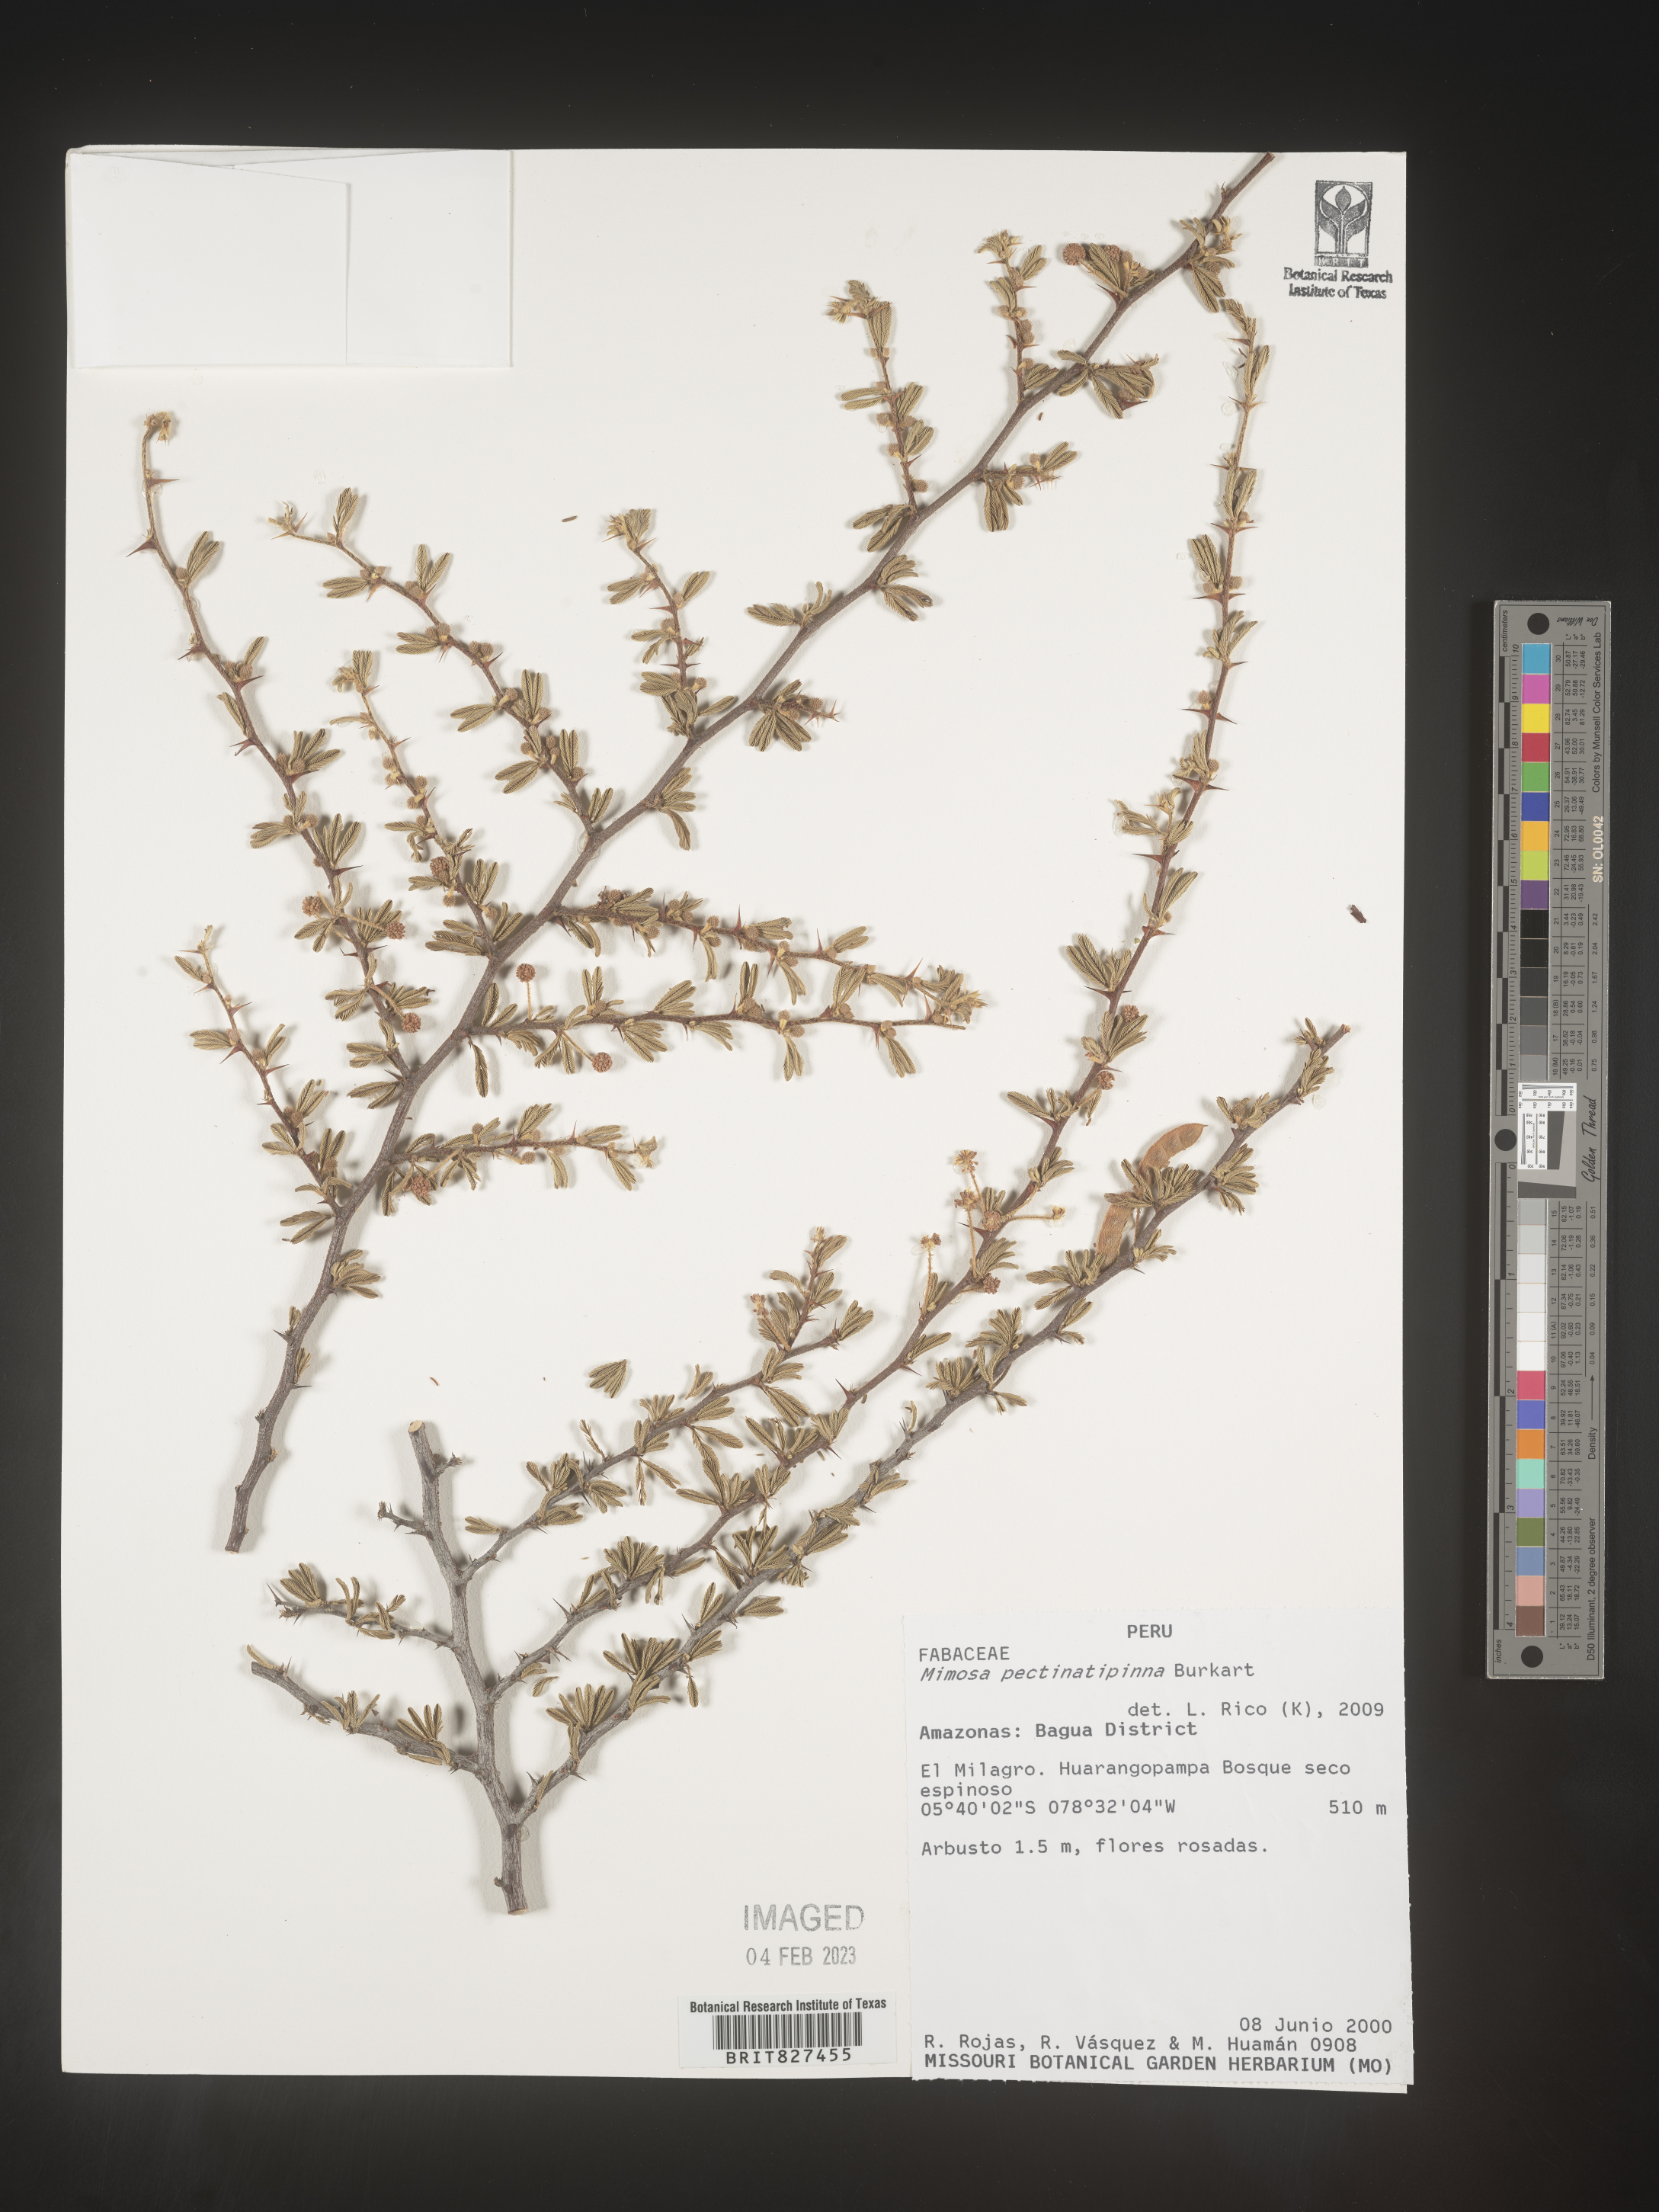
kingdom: Plantae
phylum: Tracheophyta
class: Magnoliopsida
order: Fabales
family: Fabaceae
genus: Mimosa
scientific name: Mimosa
